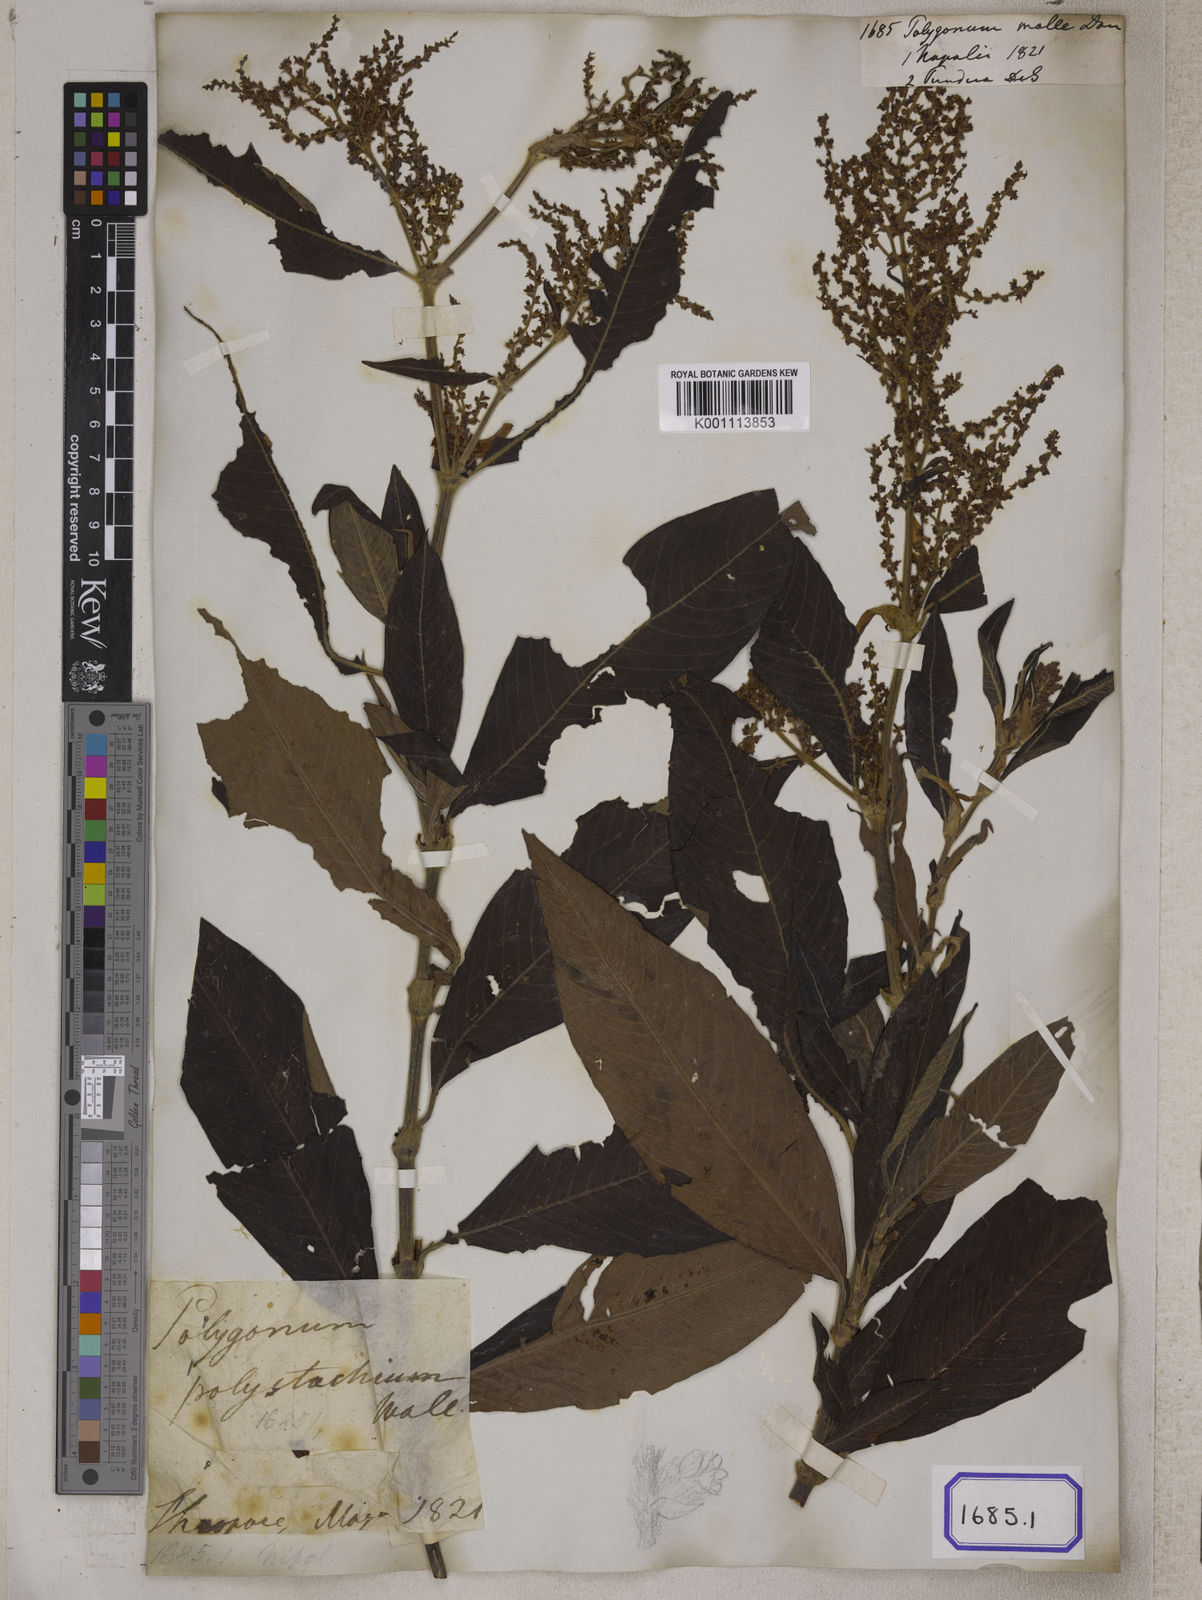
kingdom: Plantae
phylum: Tracheophyta
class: Magnoliopsida
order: Caryophyllales
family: Polygonaceae
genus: Koenigia
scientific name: Koenigia mollis
